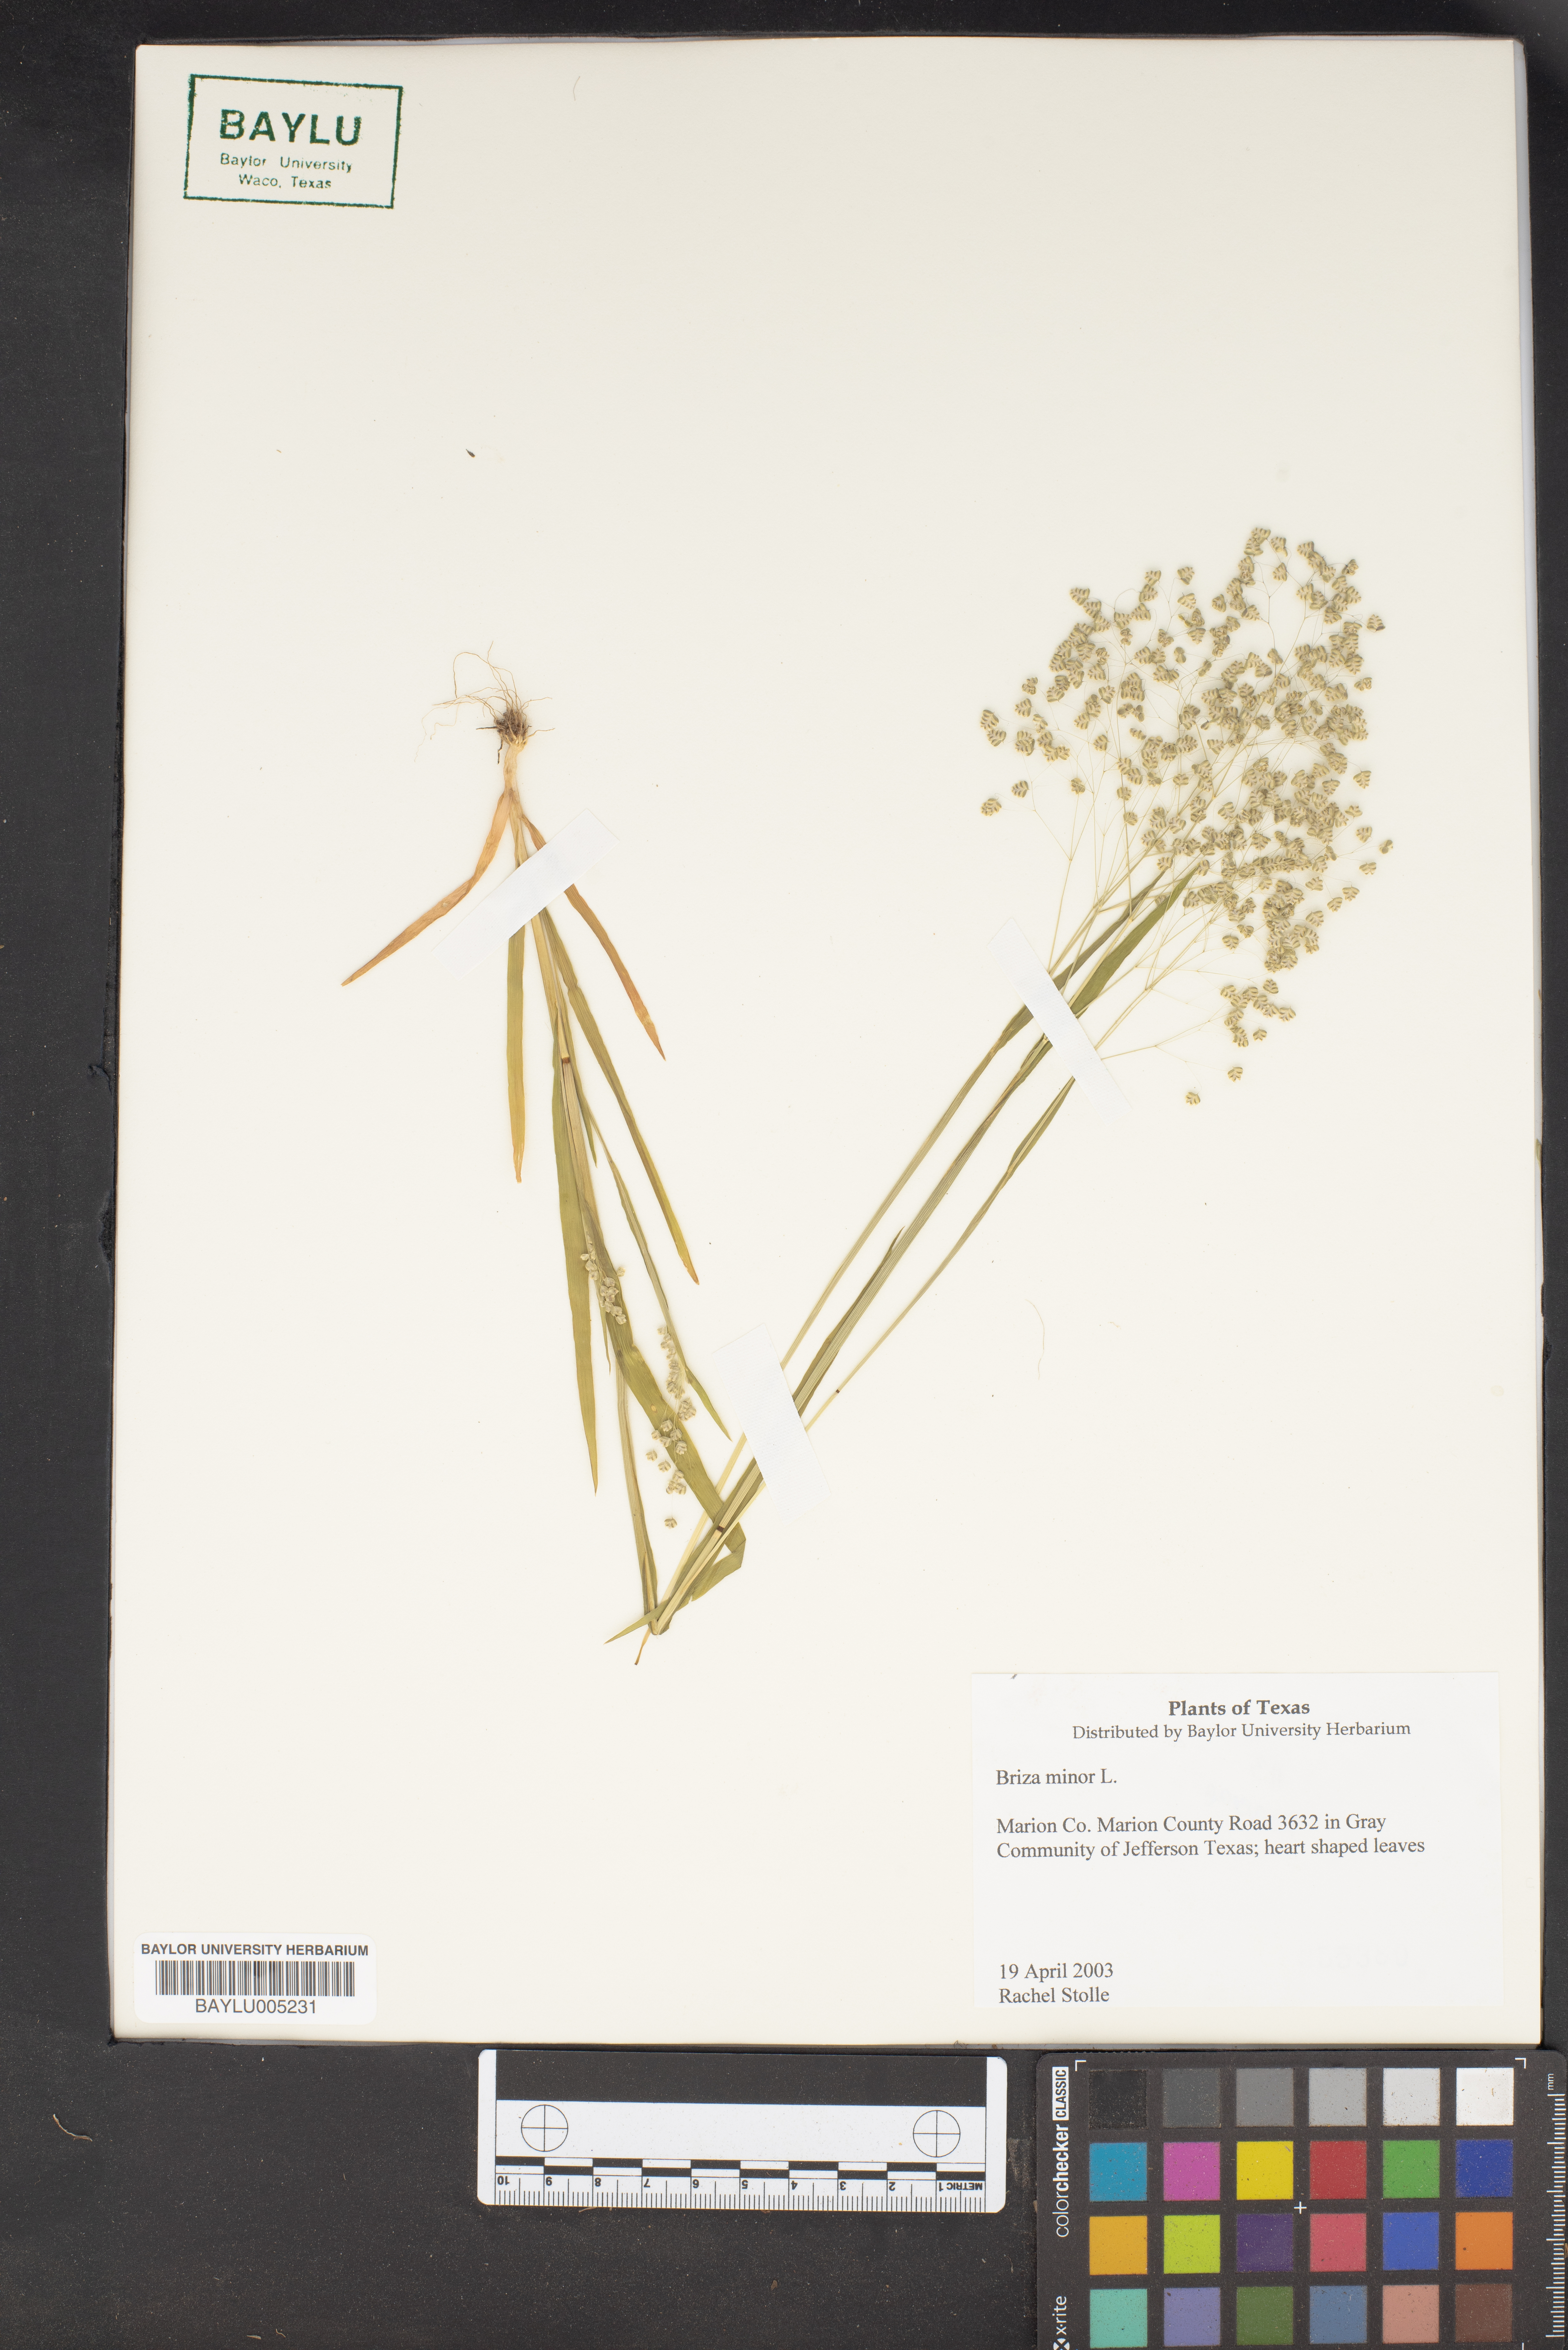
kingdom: Plantae
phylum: Tracheophyta
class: Liliopsida
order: Poales
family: Poaceae
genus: Briza
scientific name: Briza minor
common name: Lesser quaking-grass
